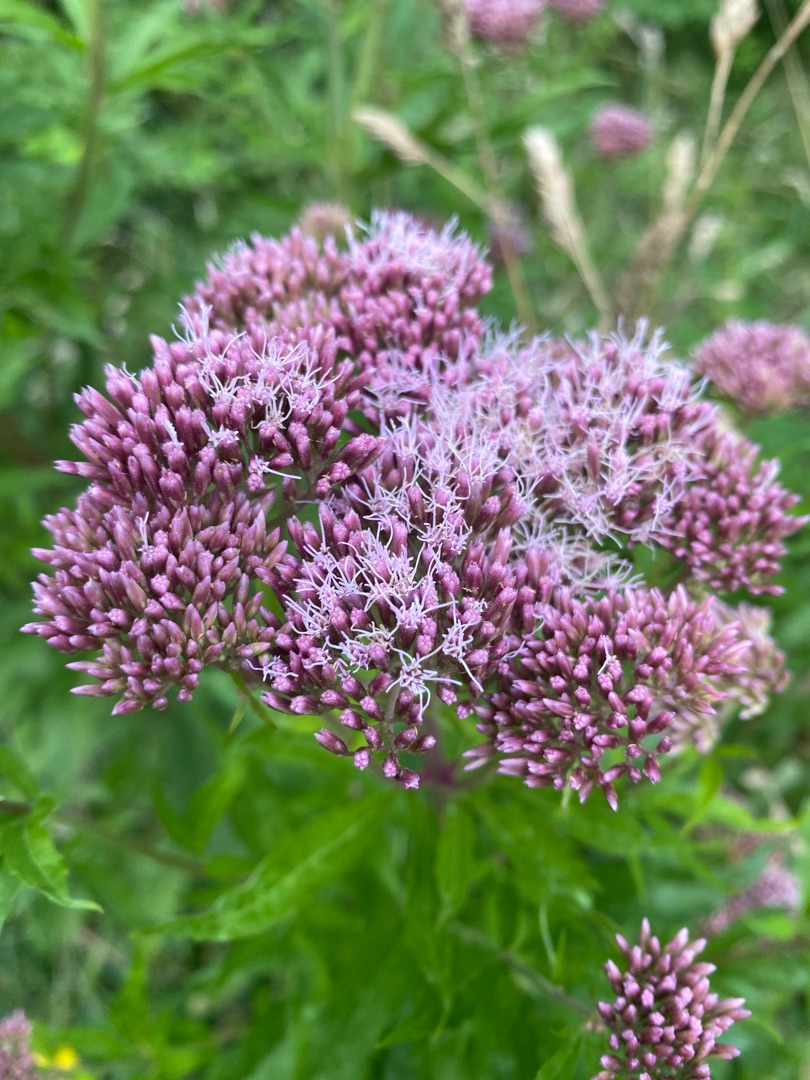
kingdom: Plantae
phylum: Tracheophyta
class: Magnoliopsida
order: Asterales
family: Asteraceae
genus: Eupatorium
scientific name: Eupatorium cannabinum
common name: Hjortetrøst
